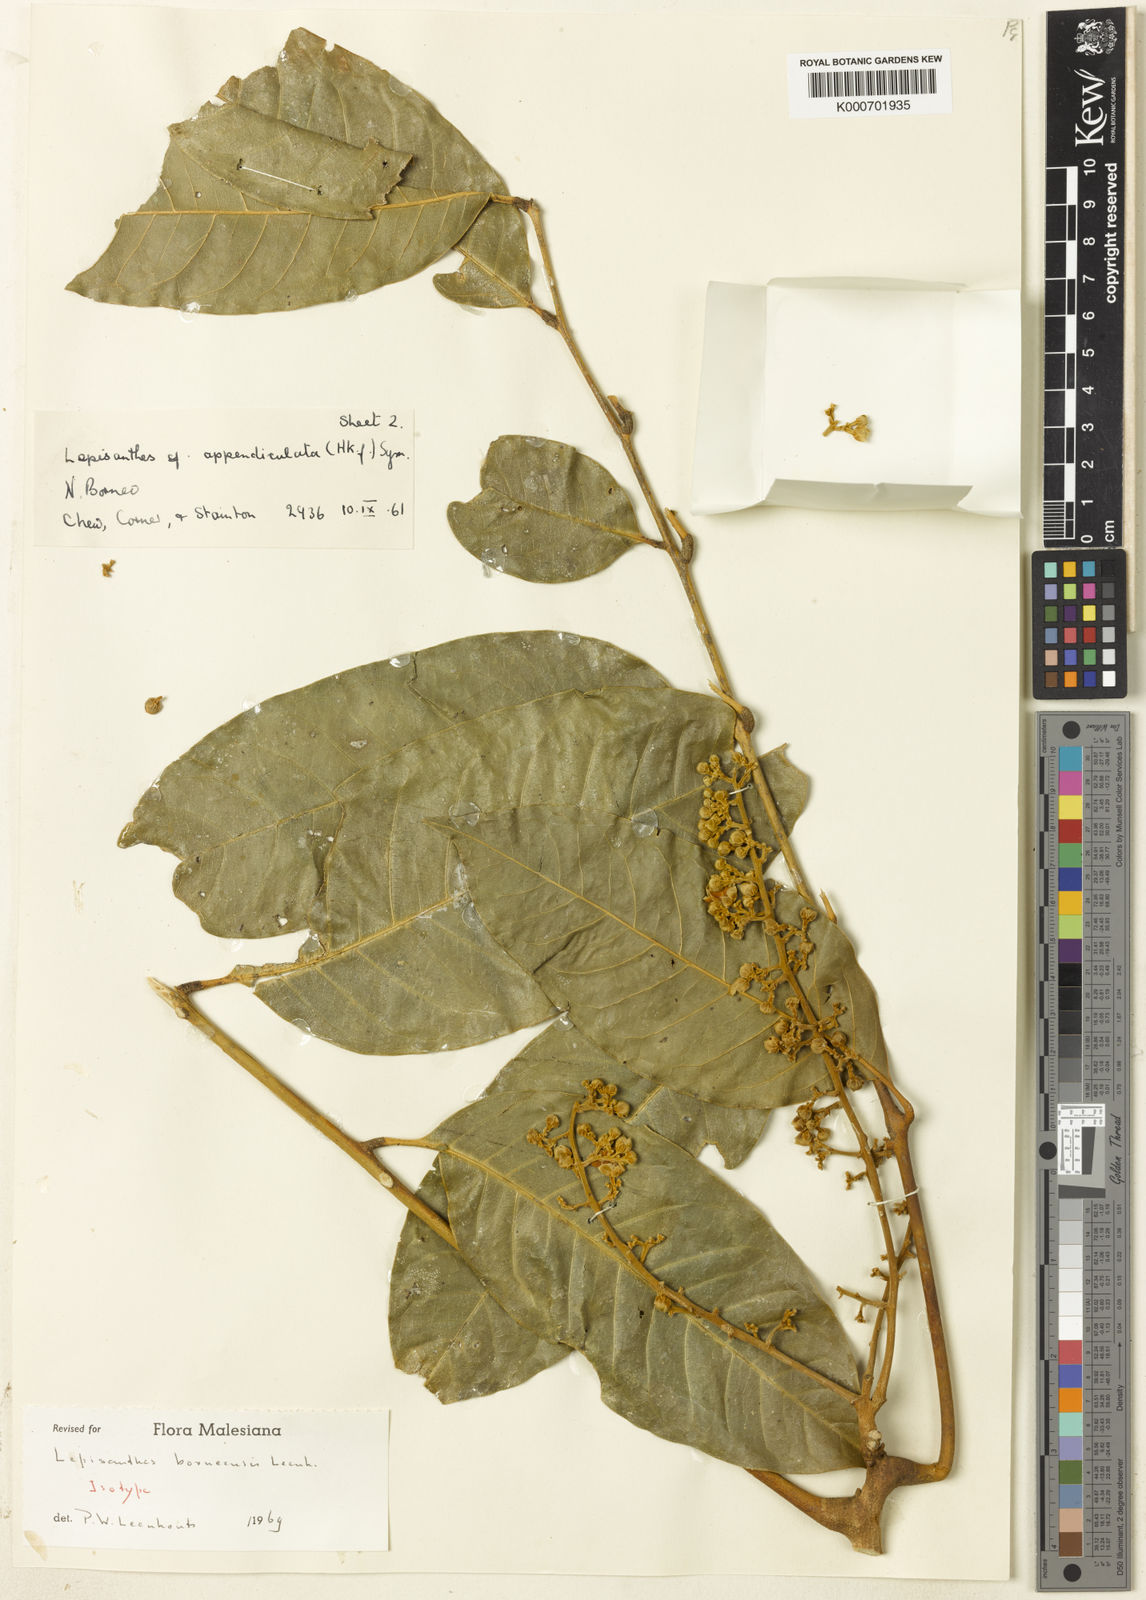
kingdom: Plantae
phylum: Tracheophyta
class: Magnoliopsida
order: Sapindales
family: Sapindaceae
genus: Lepisanthes
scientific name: Lepisanthes falcata
